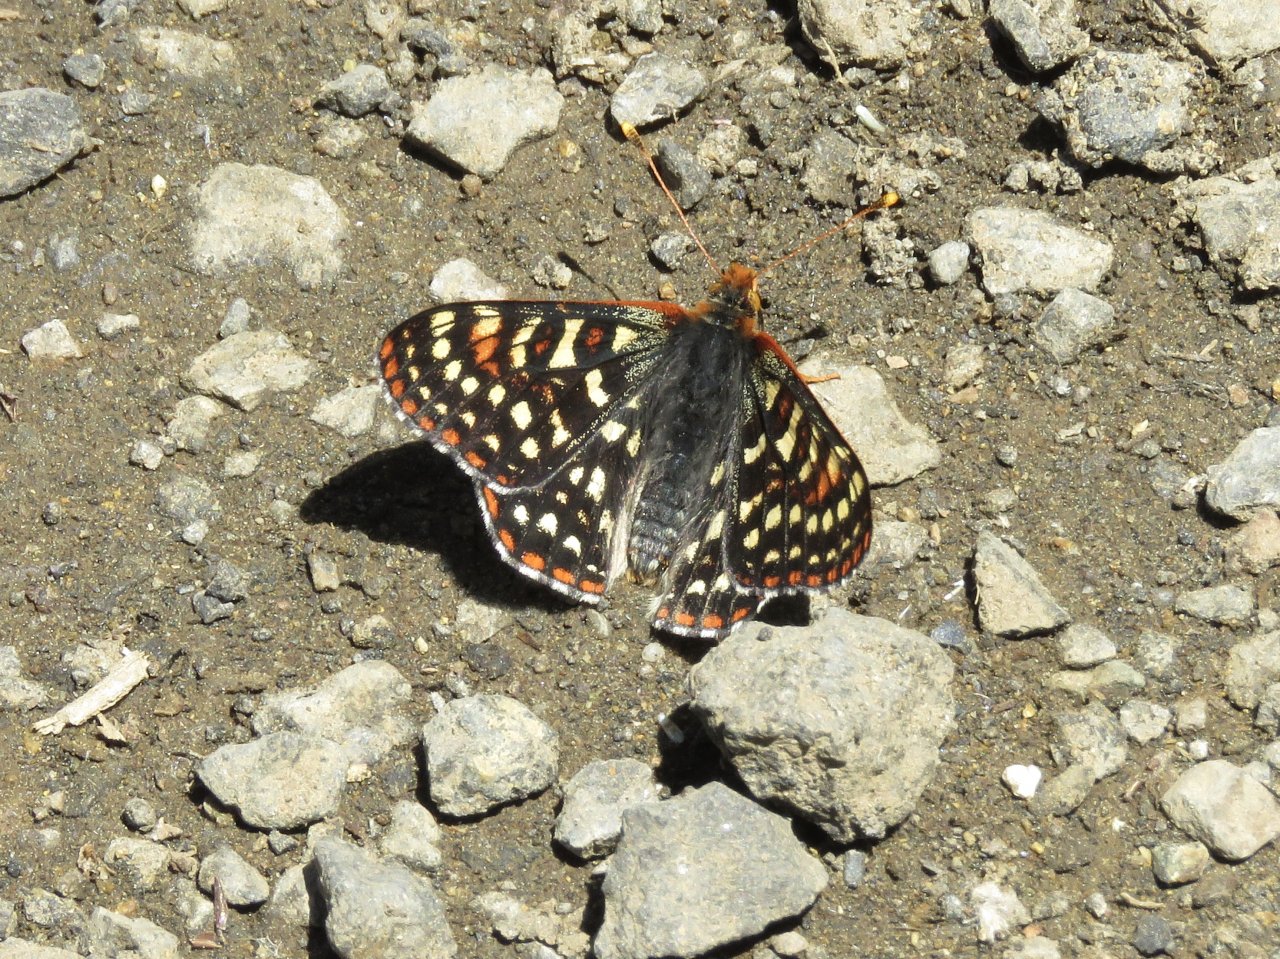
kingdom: Animalia
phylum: Arthropoda
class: Insecta
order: Lepidoptera
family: Nymphalidae
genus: Occidryas
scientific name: Occidryas colon
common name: Snowberry Checkerspot
